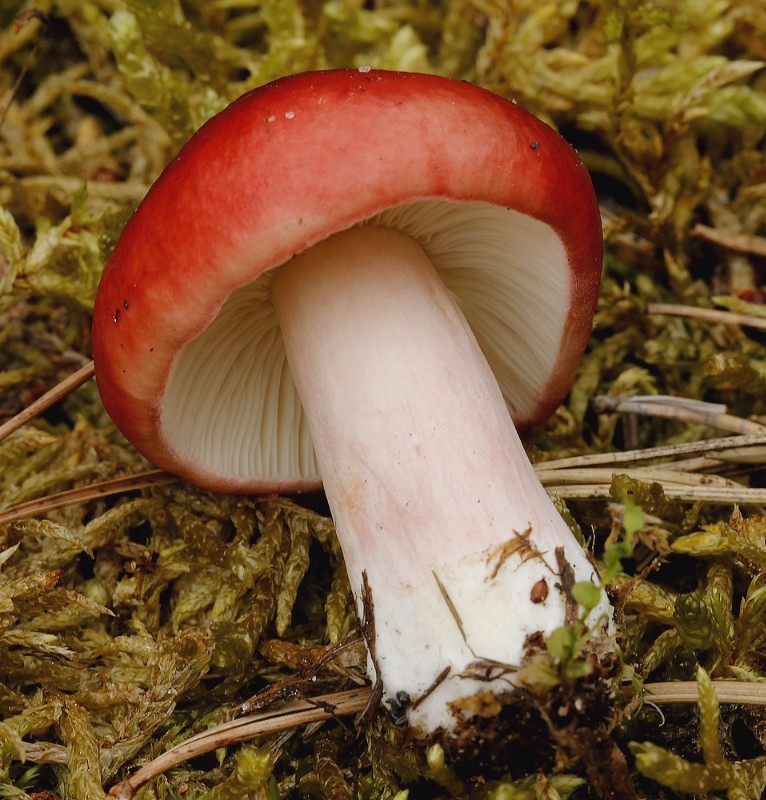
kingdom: Fungi
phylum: Basidiomycota
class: Agaricomycetes
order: Russulales
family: Russulaceae
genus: Russula
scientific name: Russula xerampelina
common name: hummer-skørhat
